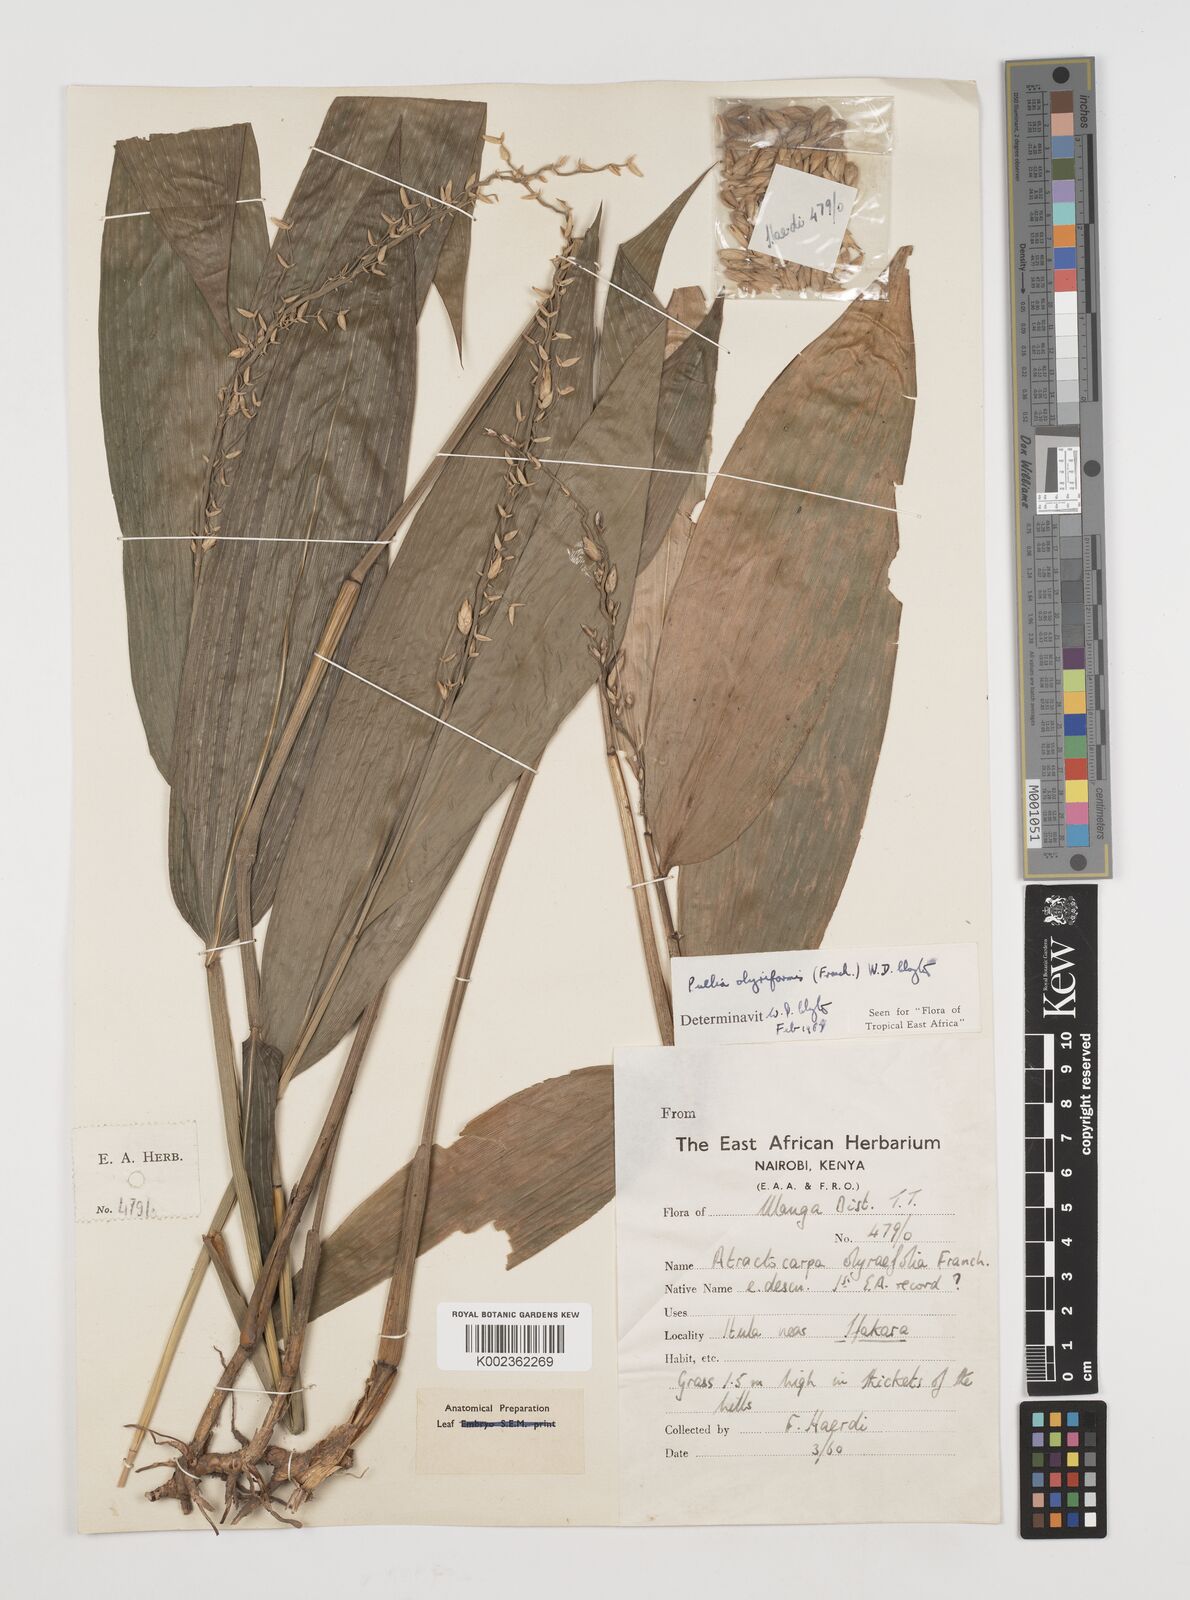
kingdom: Plantae
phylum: Tracheophyta
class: Liliopsida
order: Poales
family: Poaceae
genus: Puelia
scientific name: Puelia olyriformis
